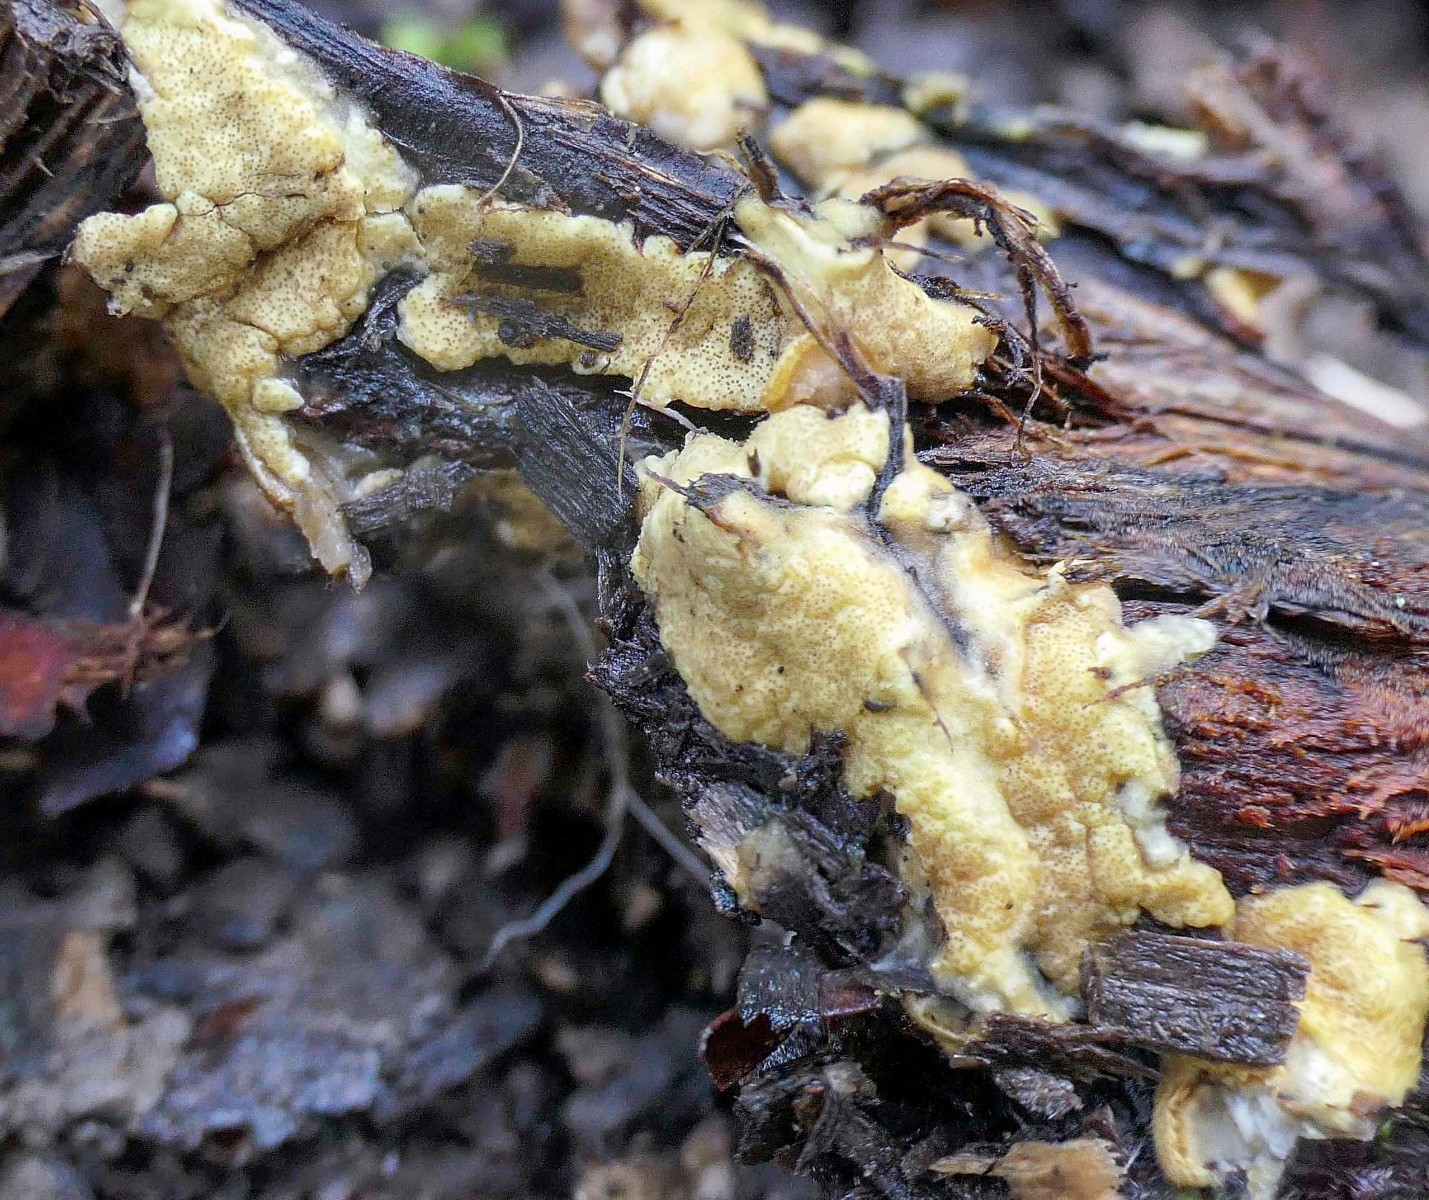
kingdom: Fungi
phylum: Ascomycota
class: Sordariomycetes
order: Hypocreales
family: Hypocreaceae
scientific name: Hypocreaceae
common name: kødkernefamilien
